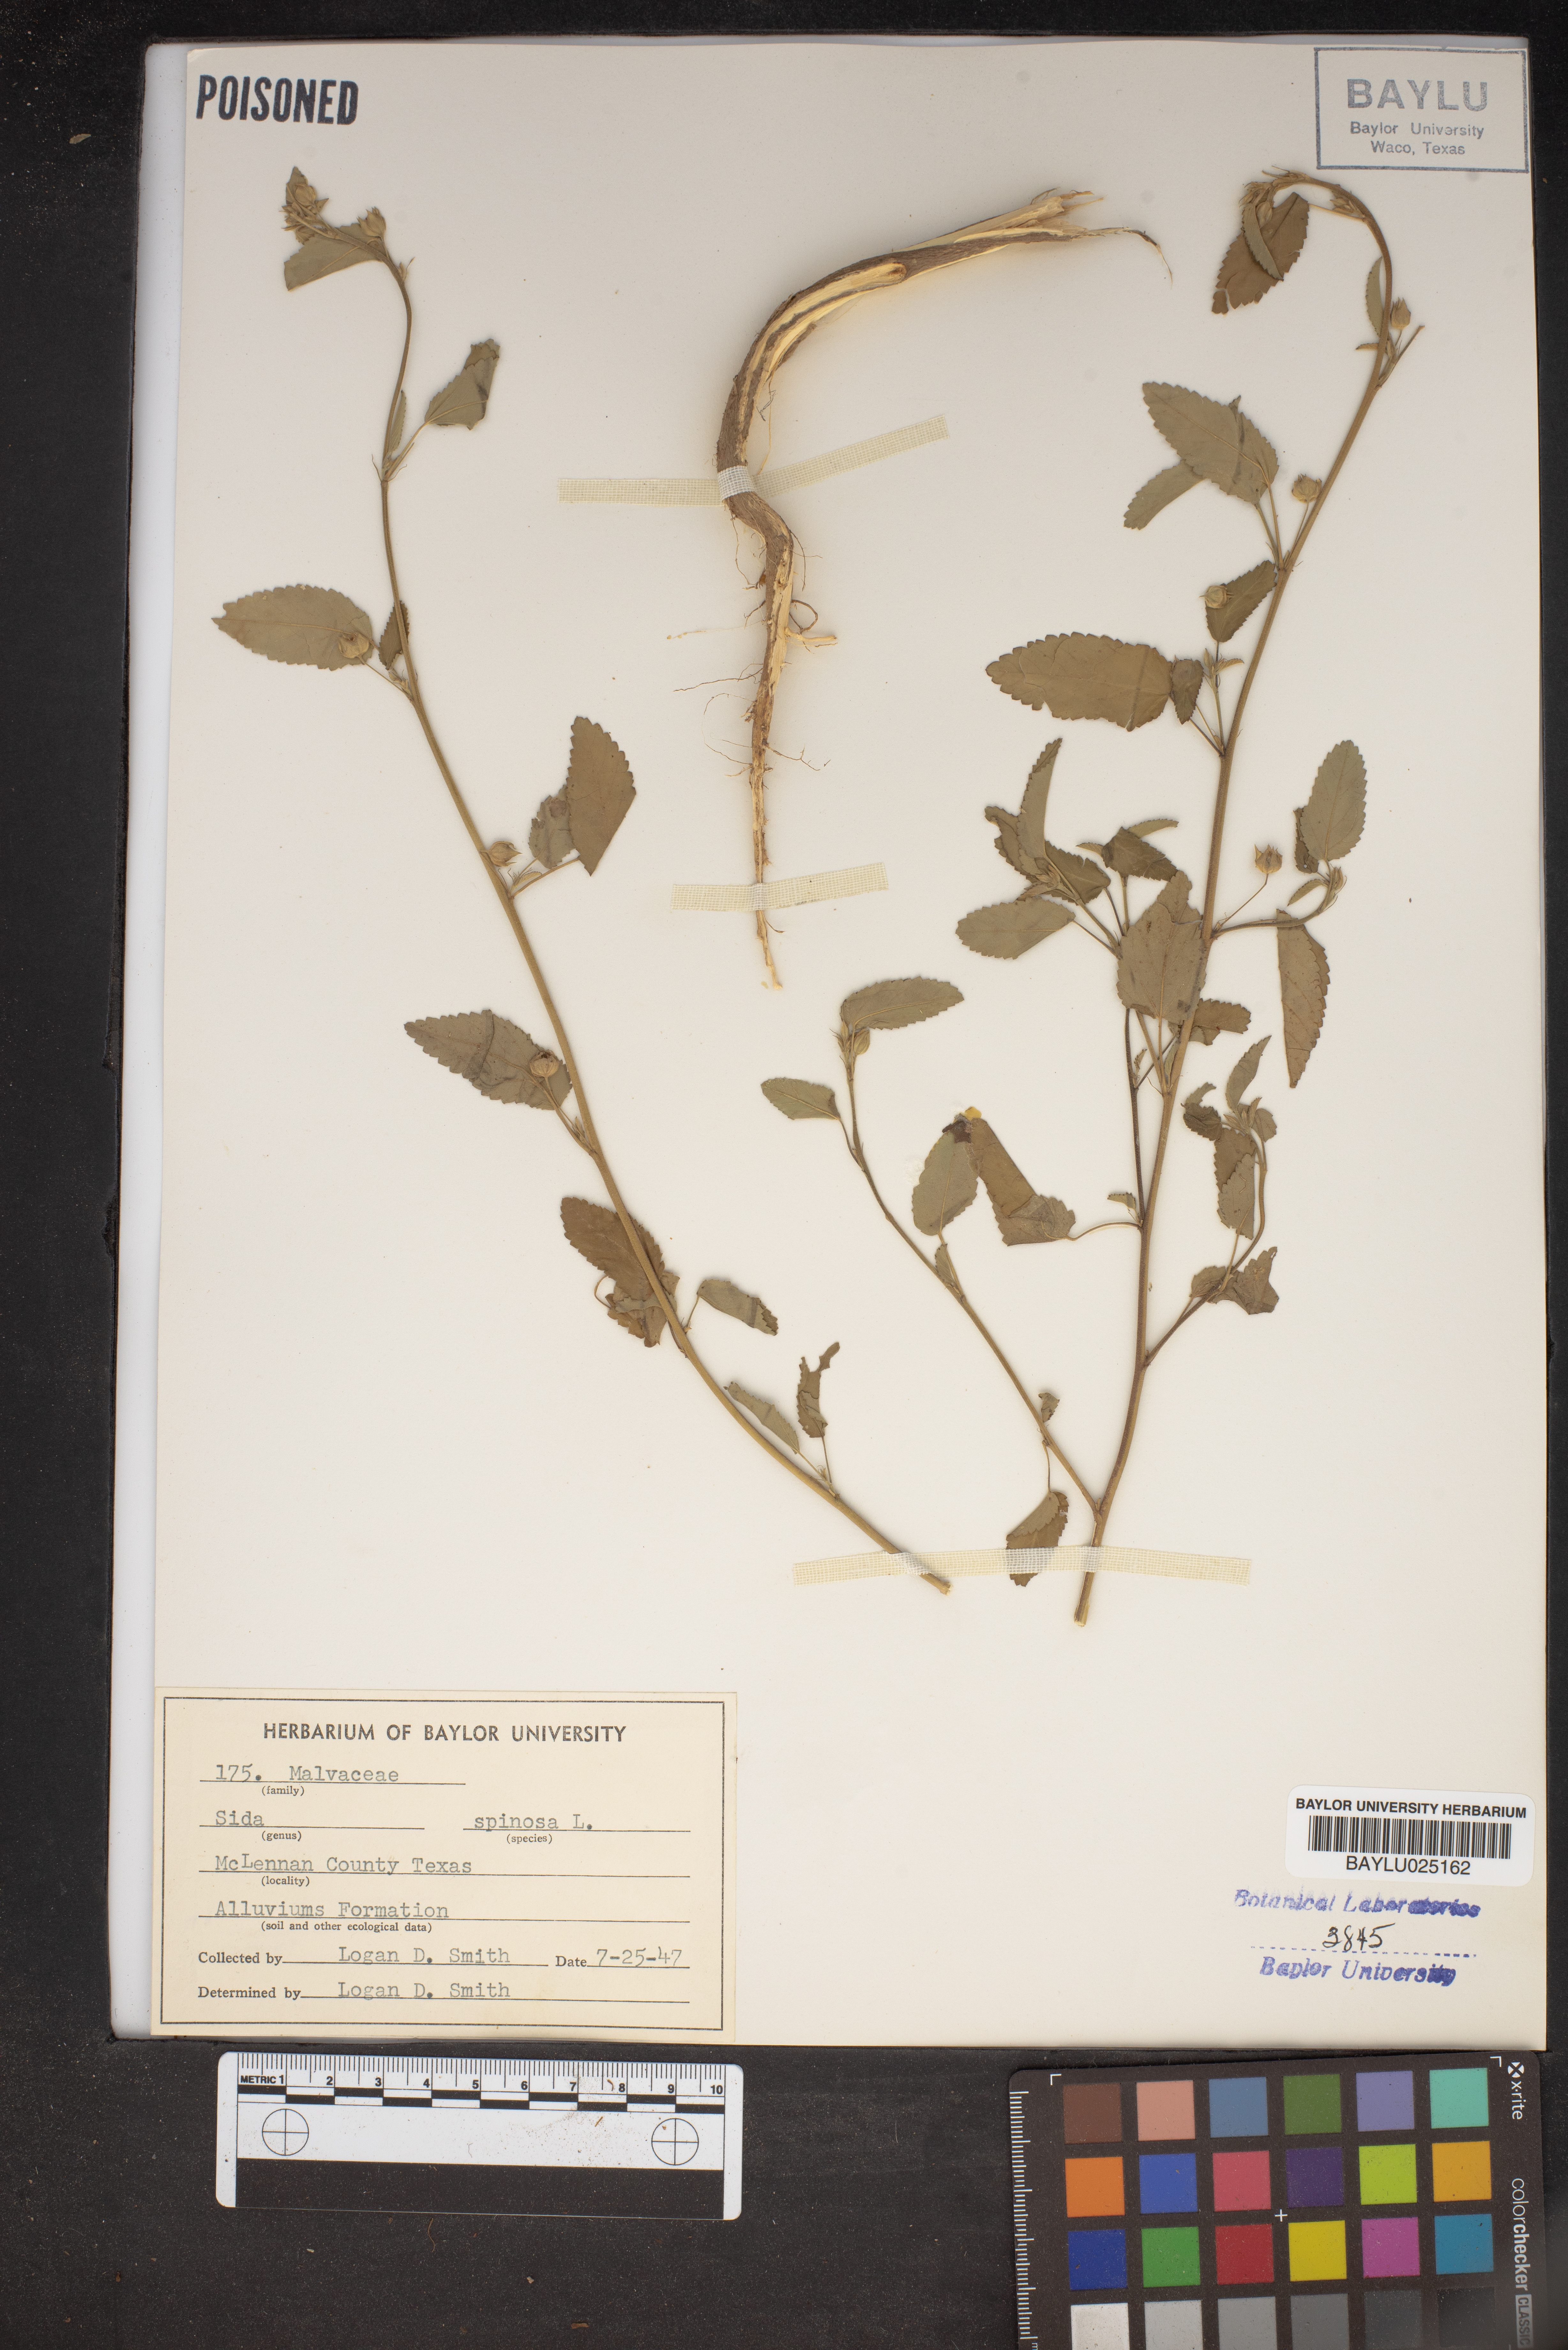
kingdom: Plantae
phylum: Tracheophyta
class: Magnoliopsida
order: Malvales
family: Malvaceae
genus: Sida
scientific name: Sida spinosa
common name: Prickly fanpetals
